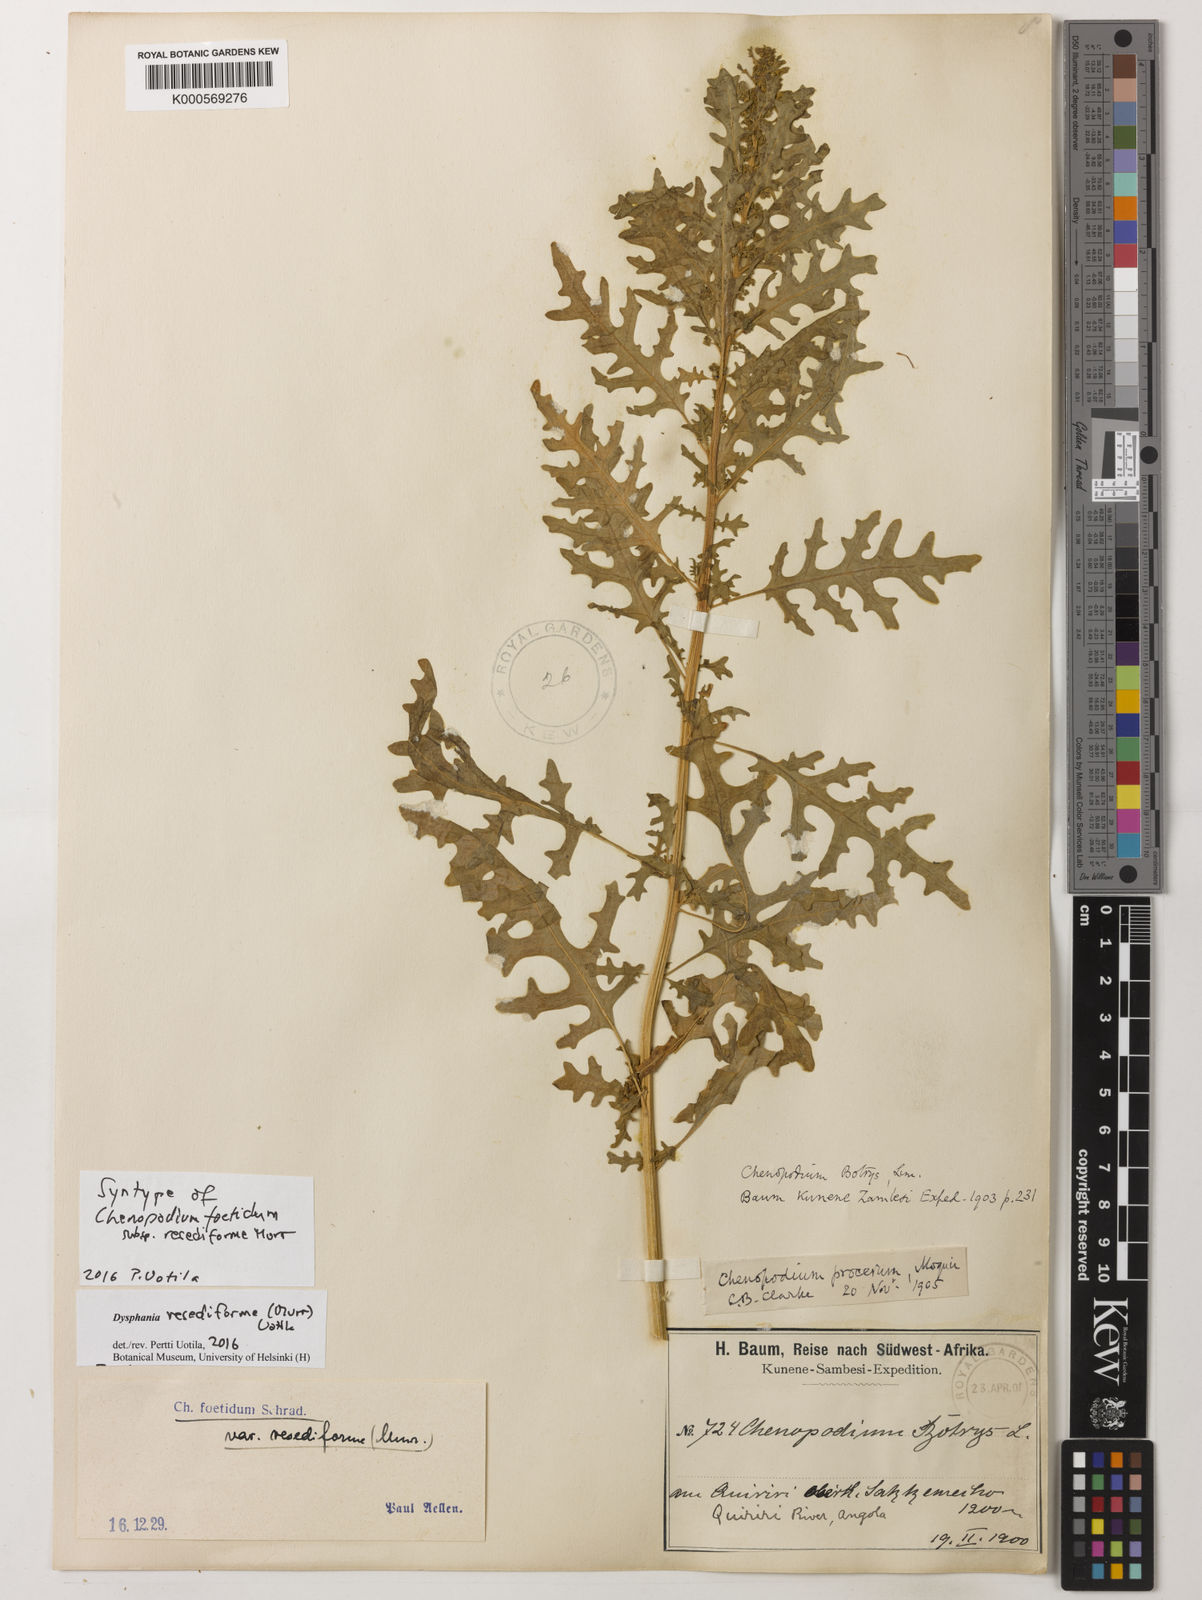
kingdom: Plantae
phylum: Tracheophyta
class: Magnoliopsida
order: Caryophyllales
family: Amaranthaceae
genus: Dysphania
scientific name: Dysphania schraderiana
